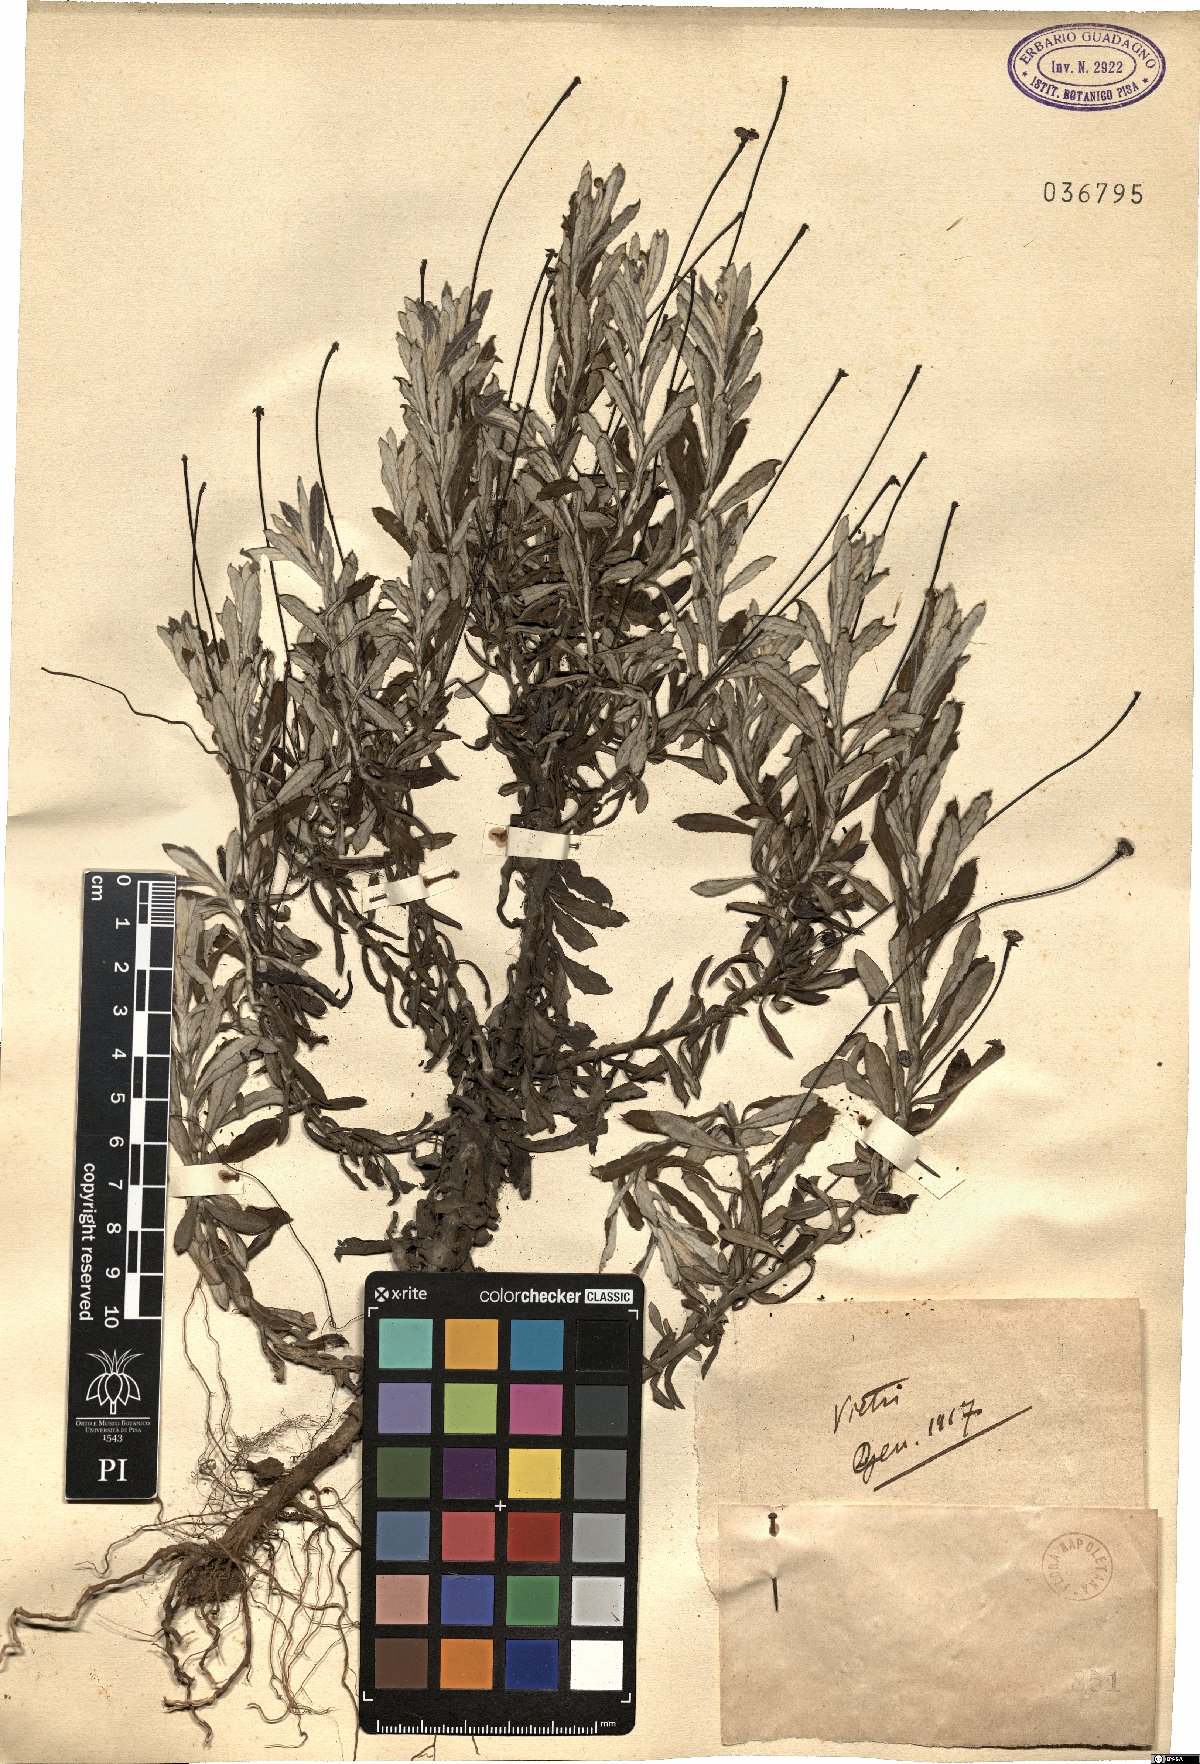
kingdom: Plantae
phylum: Tracheophyta
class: Magnoliopsida
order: Asterales
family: Asteraceae
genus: Phagnalon
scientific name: Phagnalon
